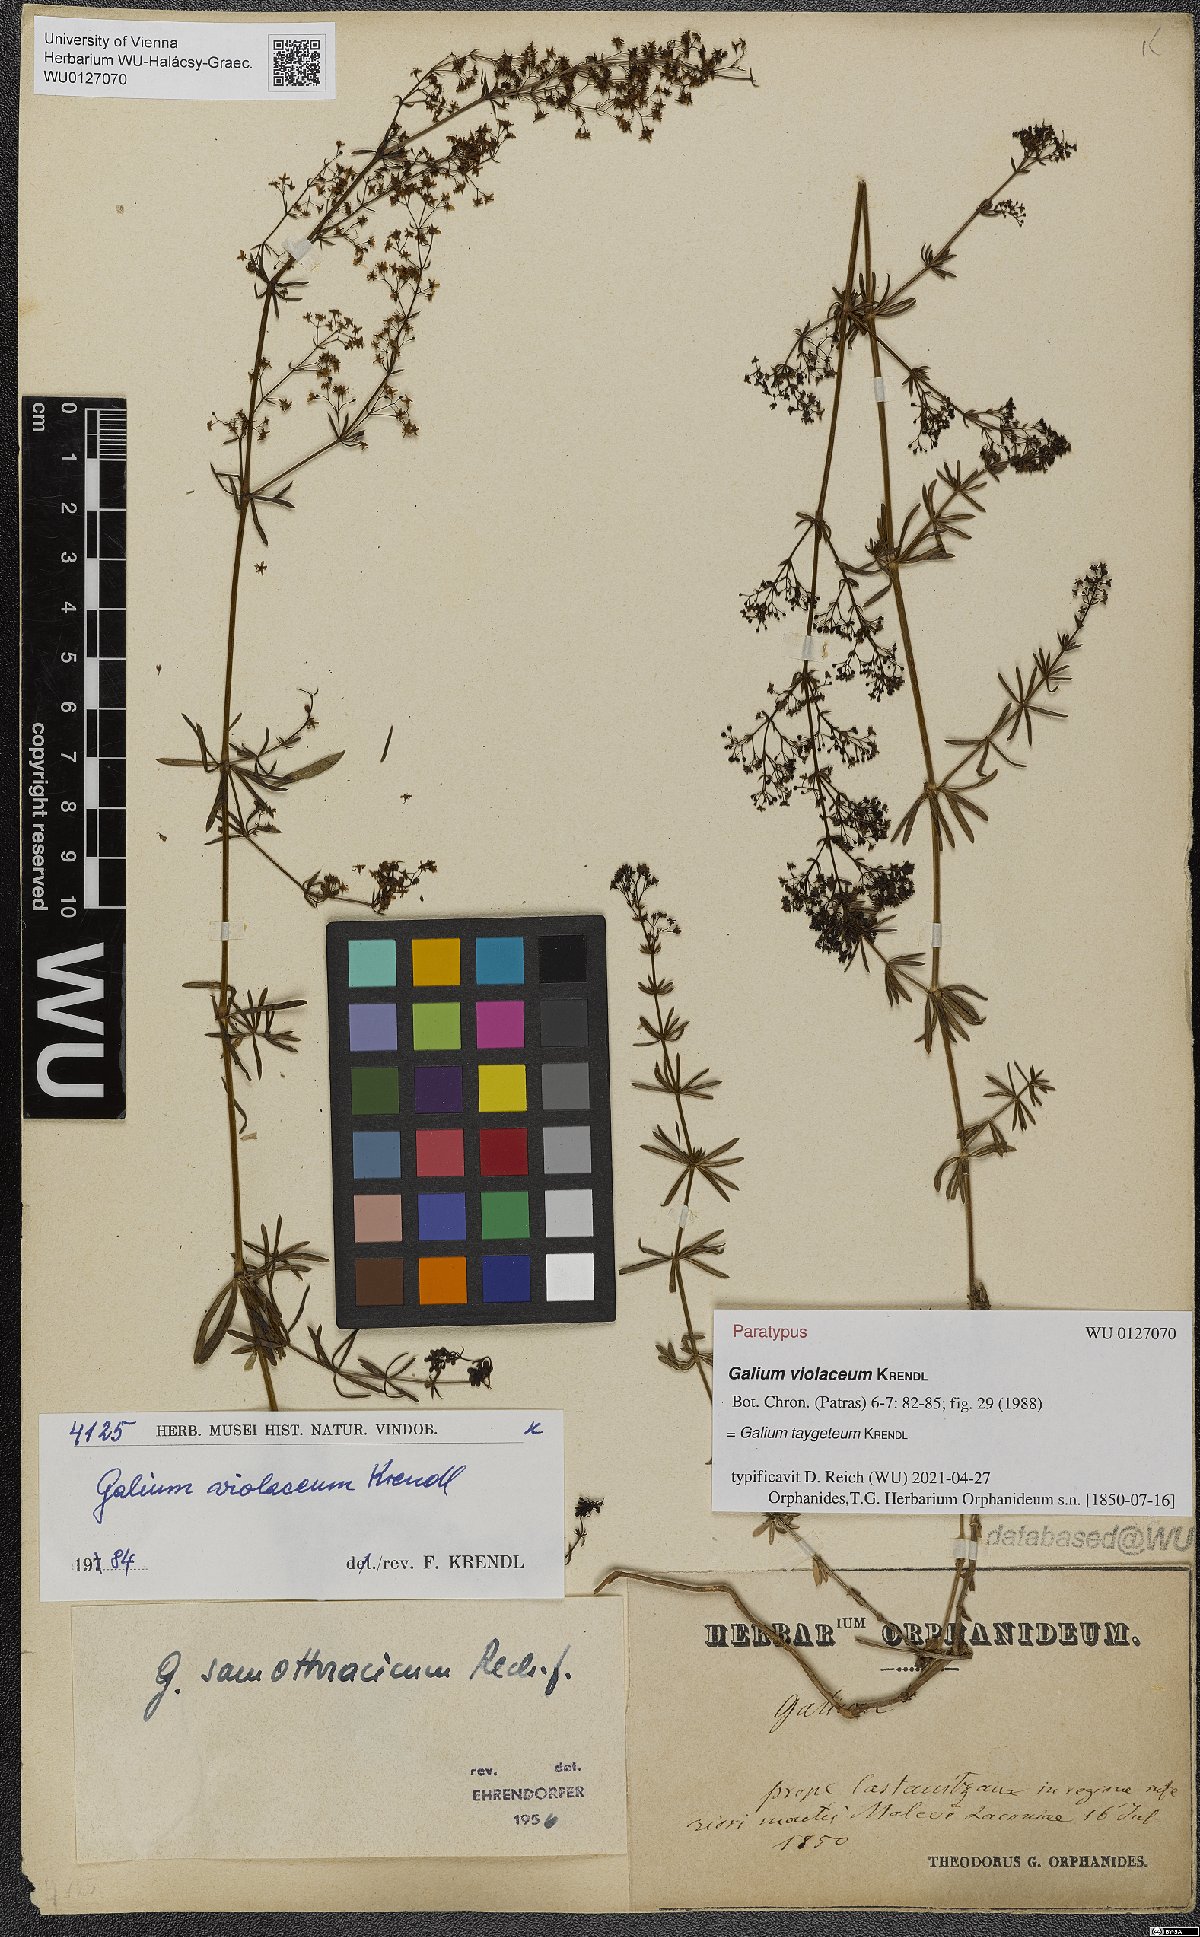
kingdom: Plantae
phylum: Tracheophyta
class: Magnoliopsida
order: Gentianales
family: Rubiaceae
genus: Galium
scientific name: Galium taygeteum
